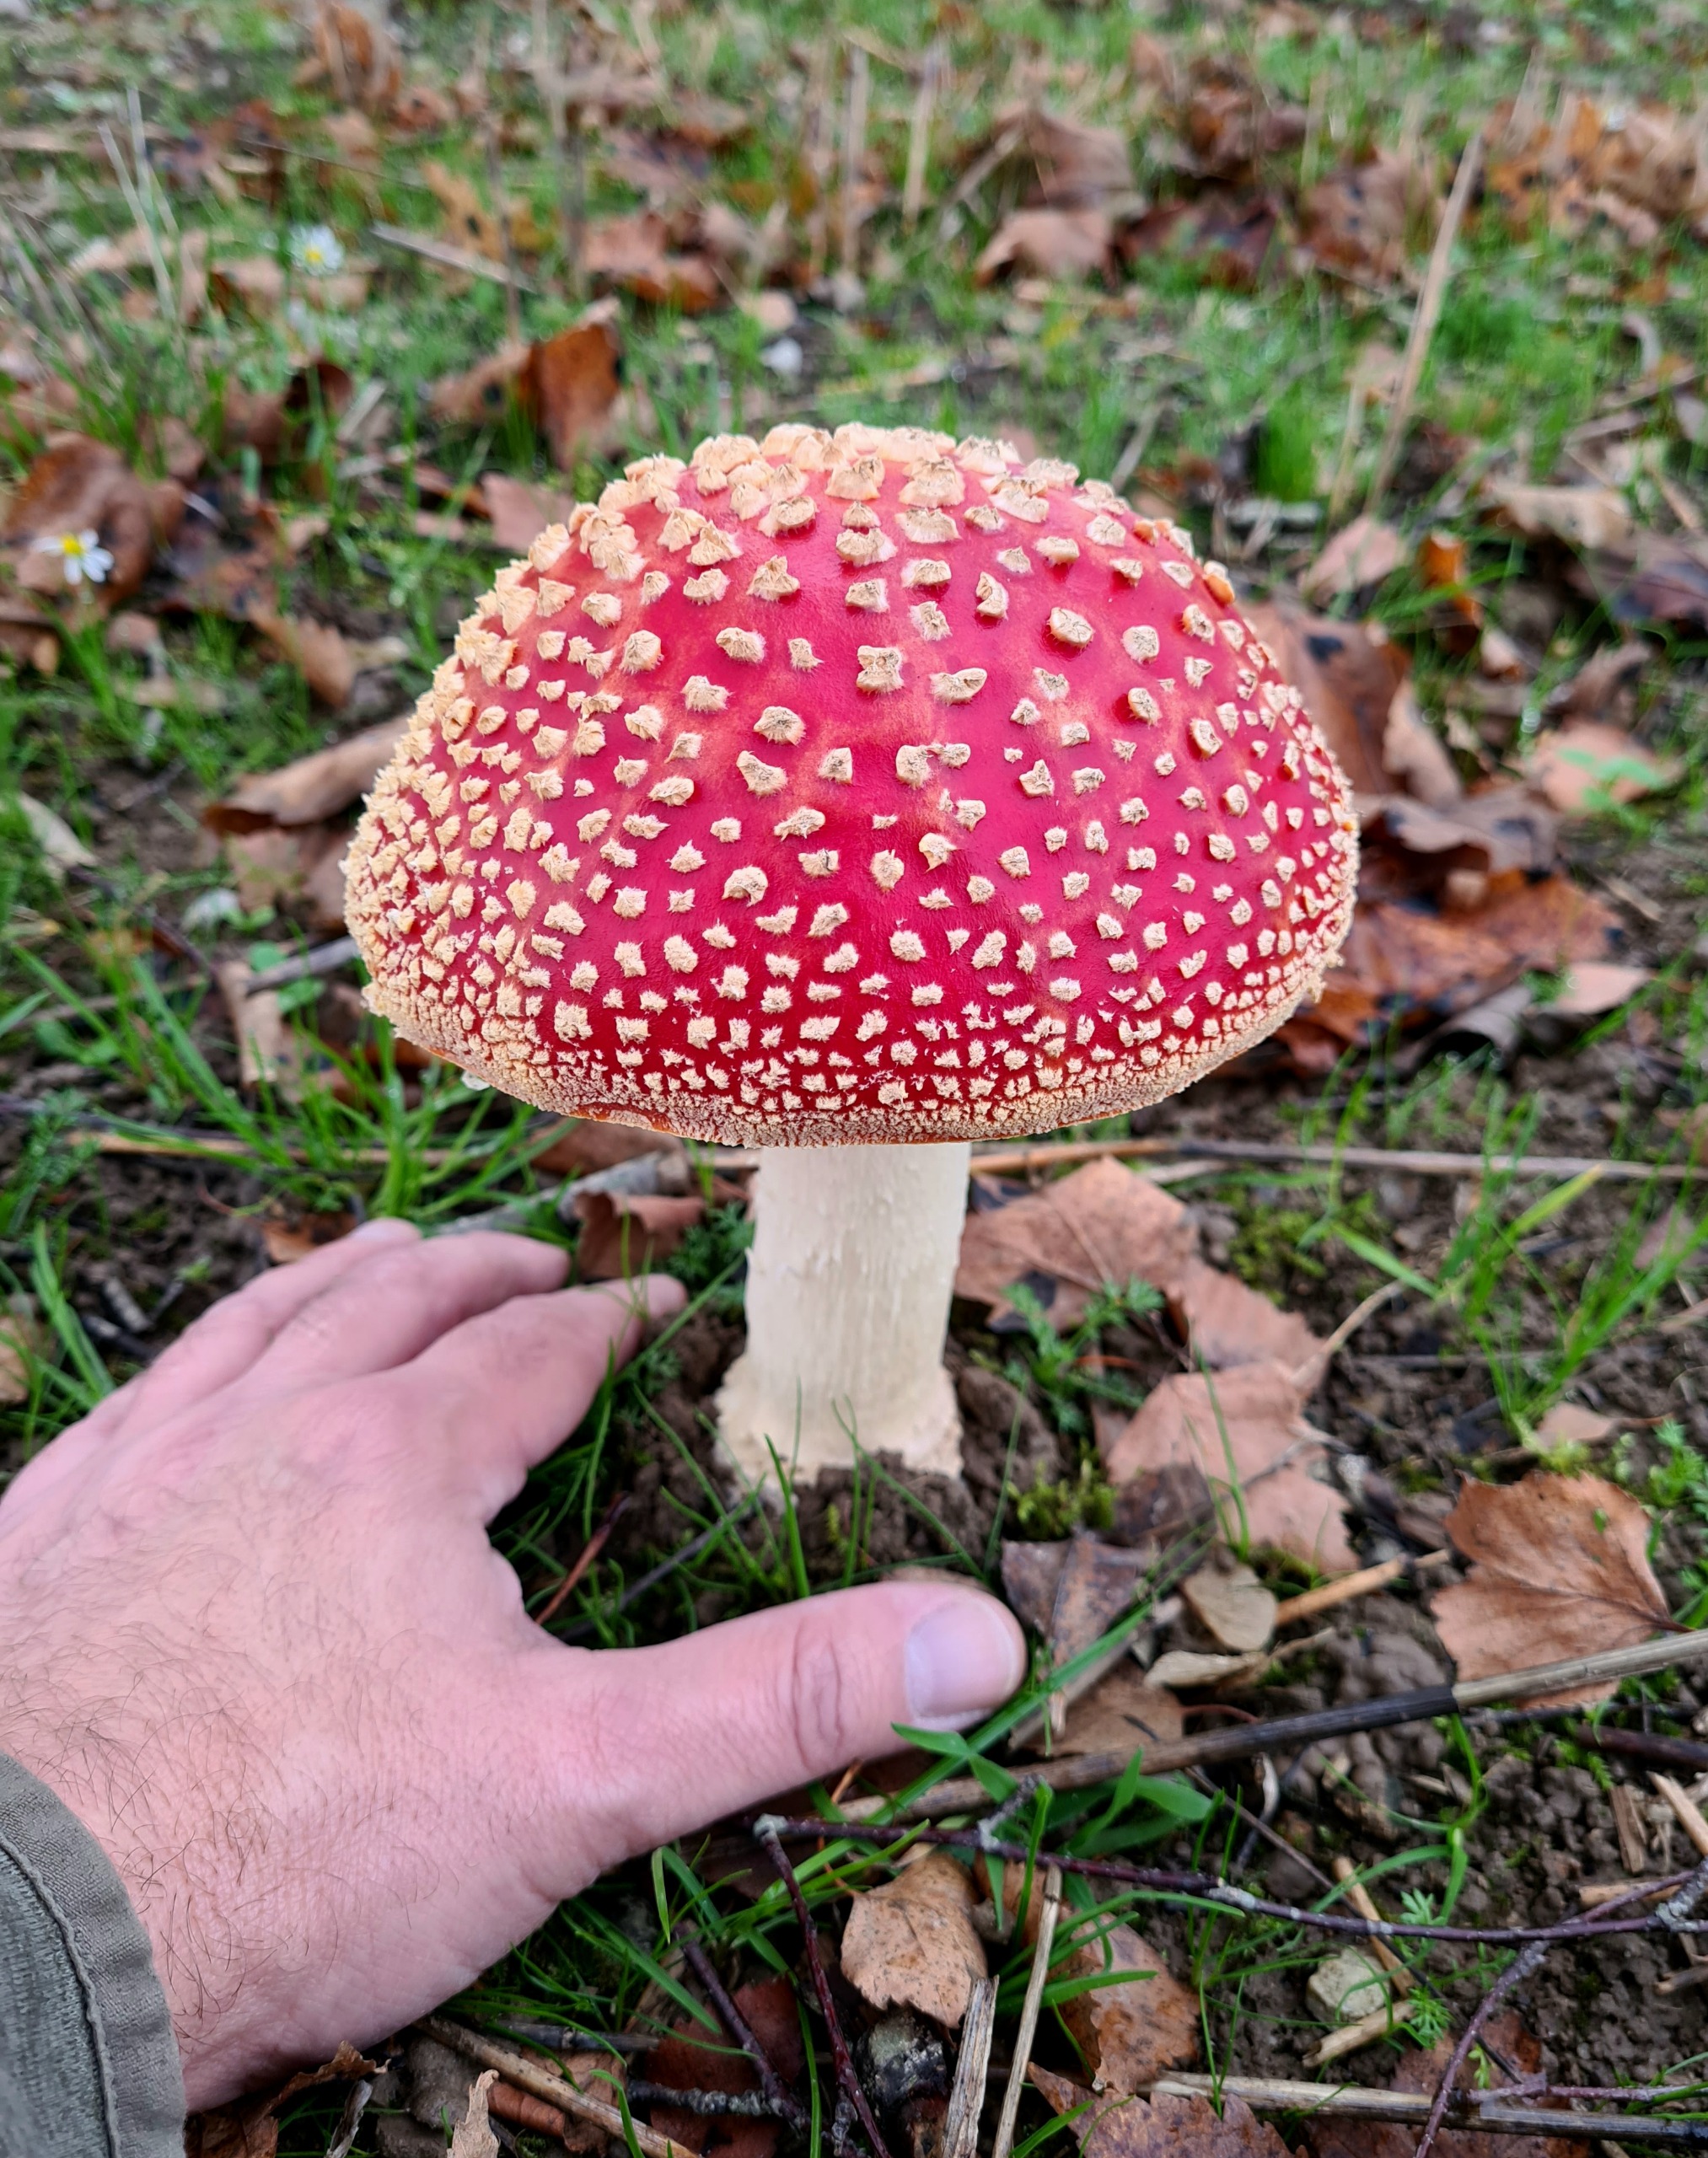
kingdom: Fungi
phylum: Basidiomycota
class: Agaricomycetes
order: Agaricales
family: Amanitaceae
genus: Amanita
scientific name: Amanita muscaria
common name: Rød fluesvamp
